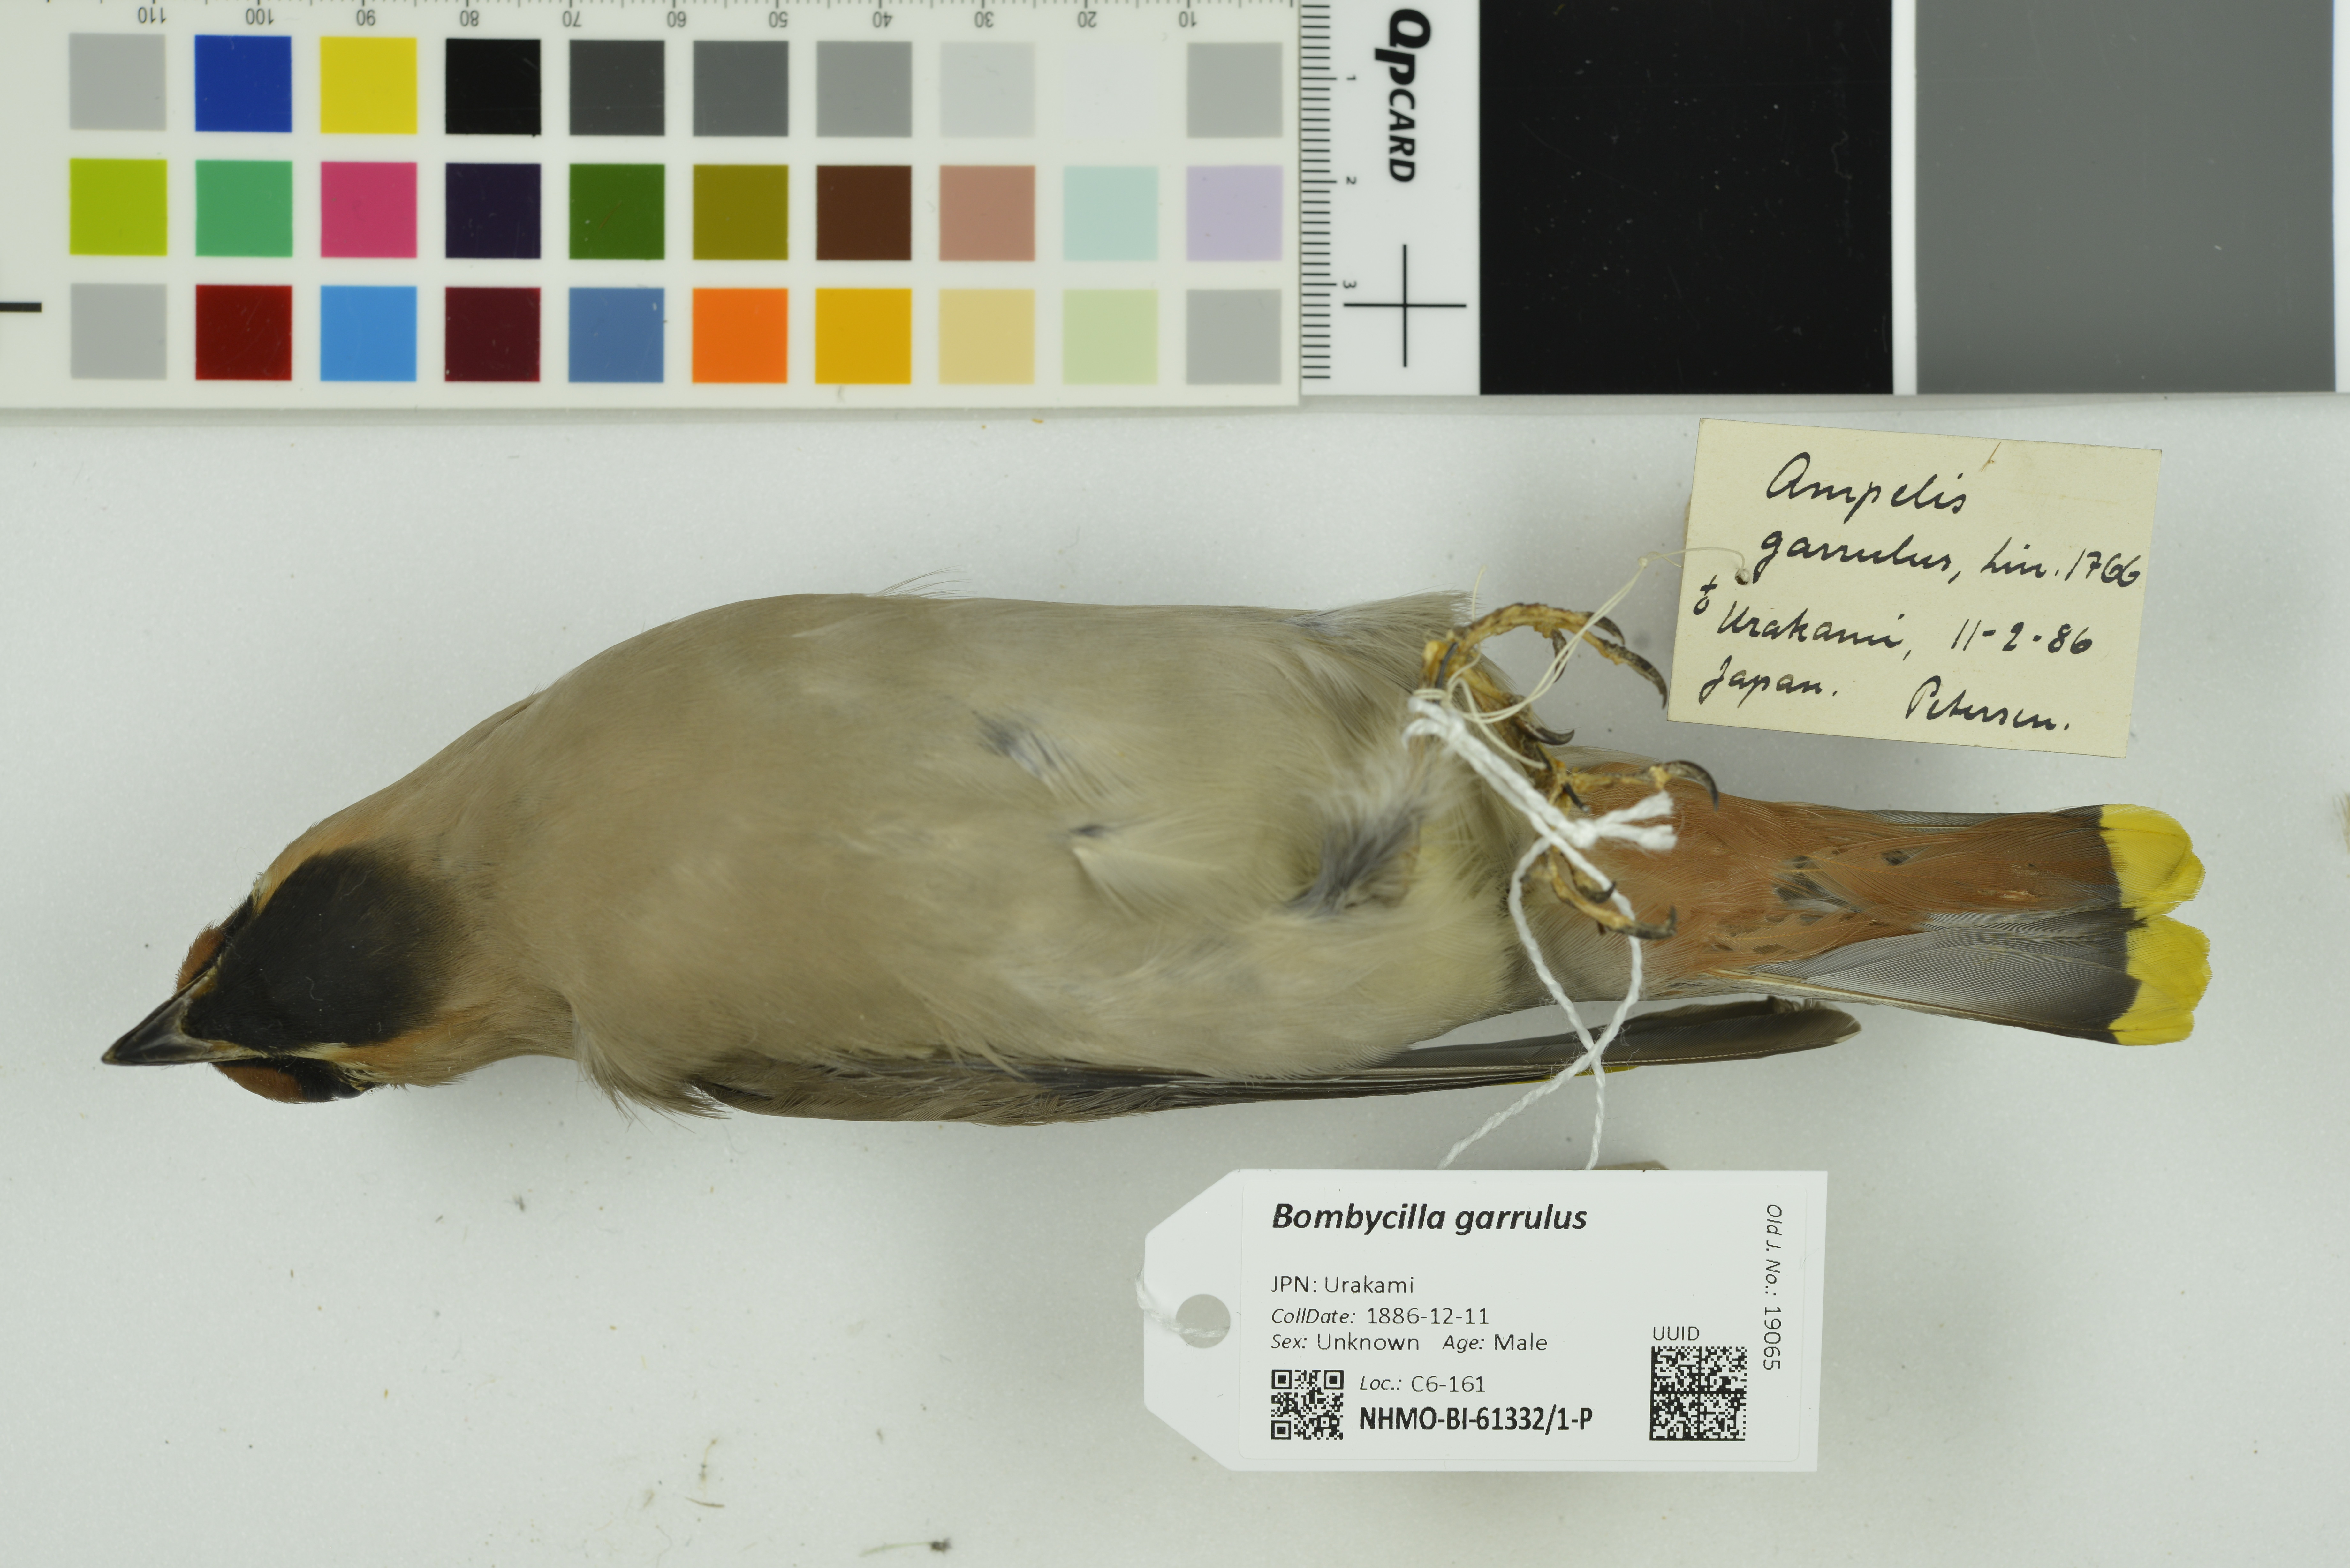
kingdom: Animalia
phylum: Chordata
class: Aves
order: Passeriformes
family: Bombycillidae
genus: Bombycilla
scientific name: Bombycilla garrulus
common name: Bohemian waxwing
